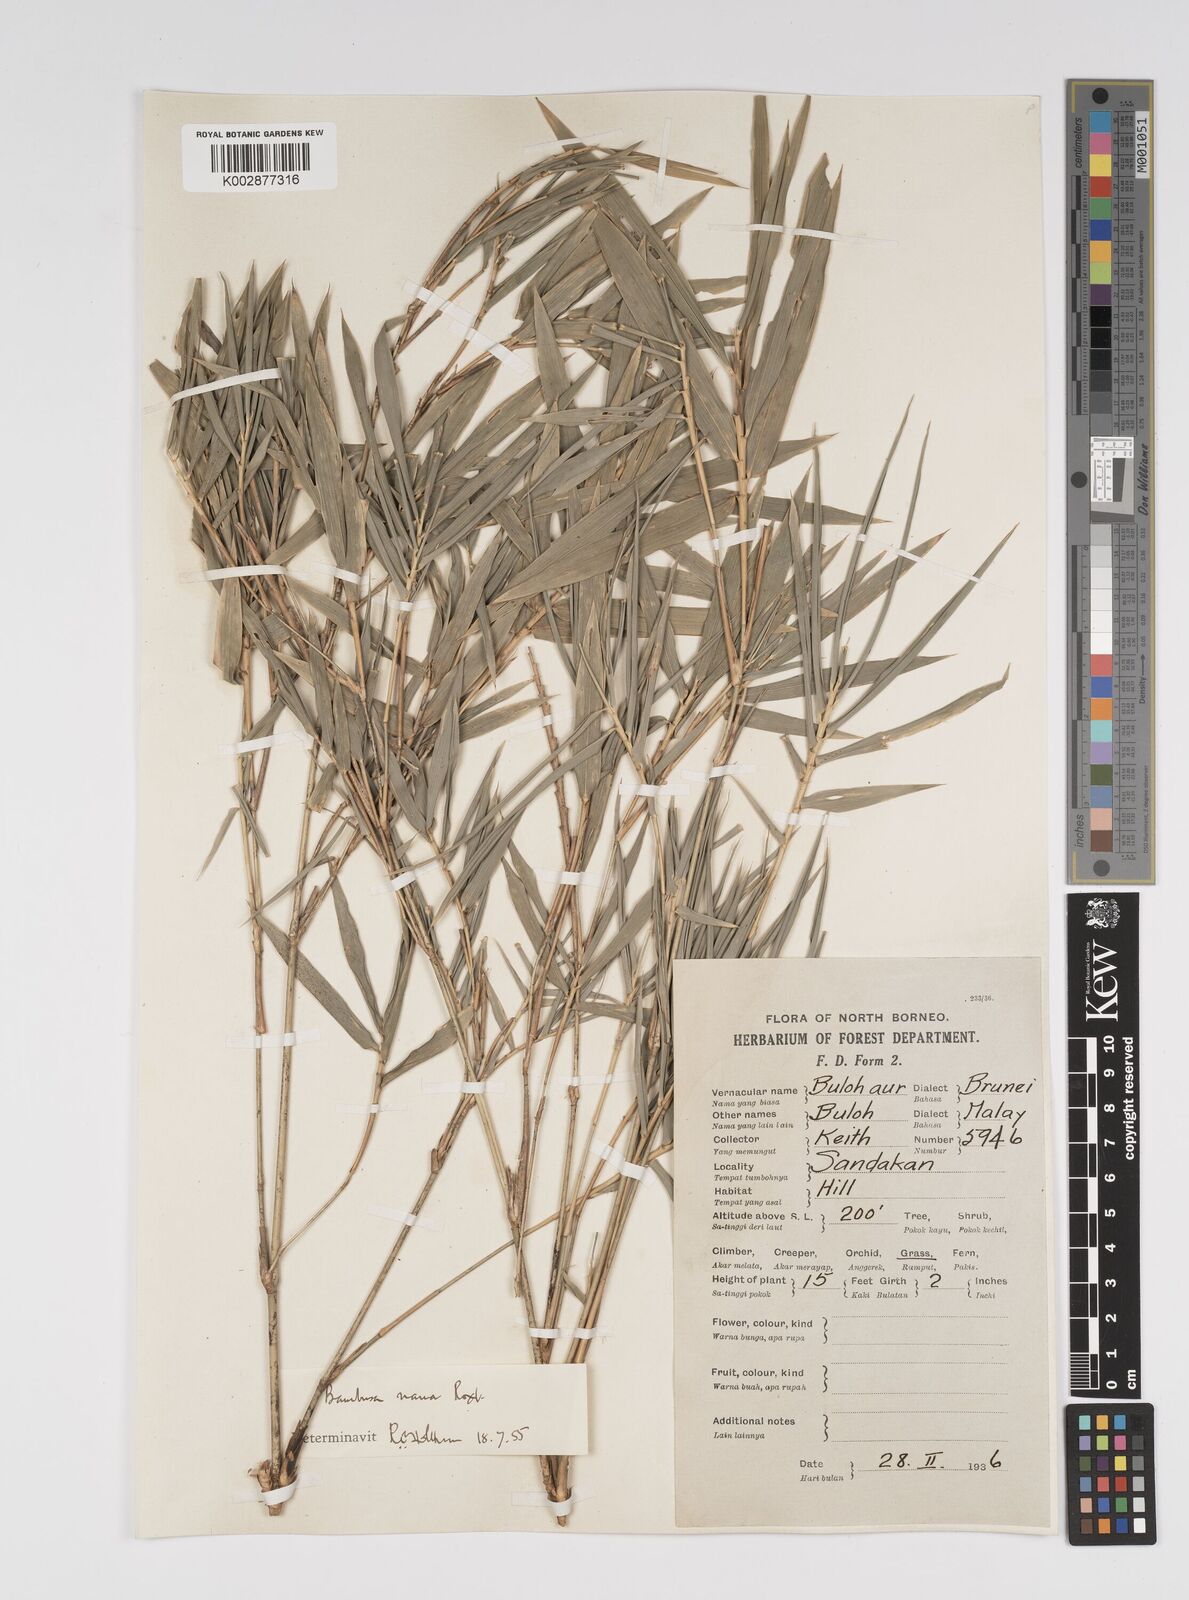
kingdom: Plantae
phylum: Tracheophyta
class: Liliopsida
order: Poales
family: Poaceae
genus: Bambusa
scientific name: Bambusa multiplex
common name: Hedge bamboo
